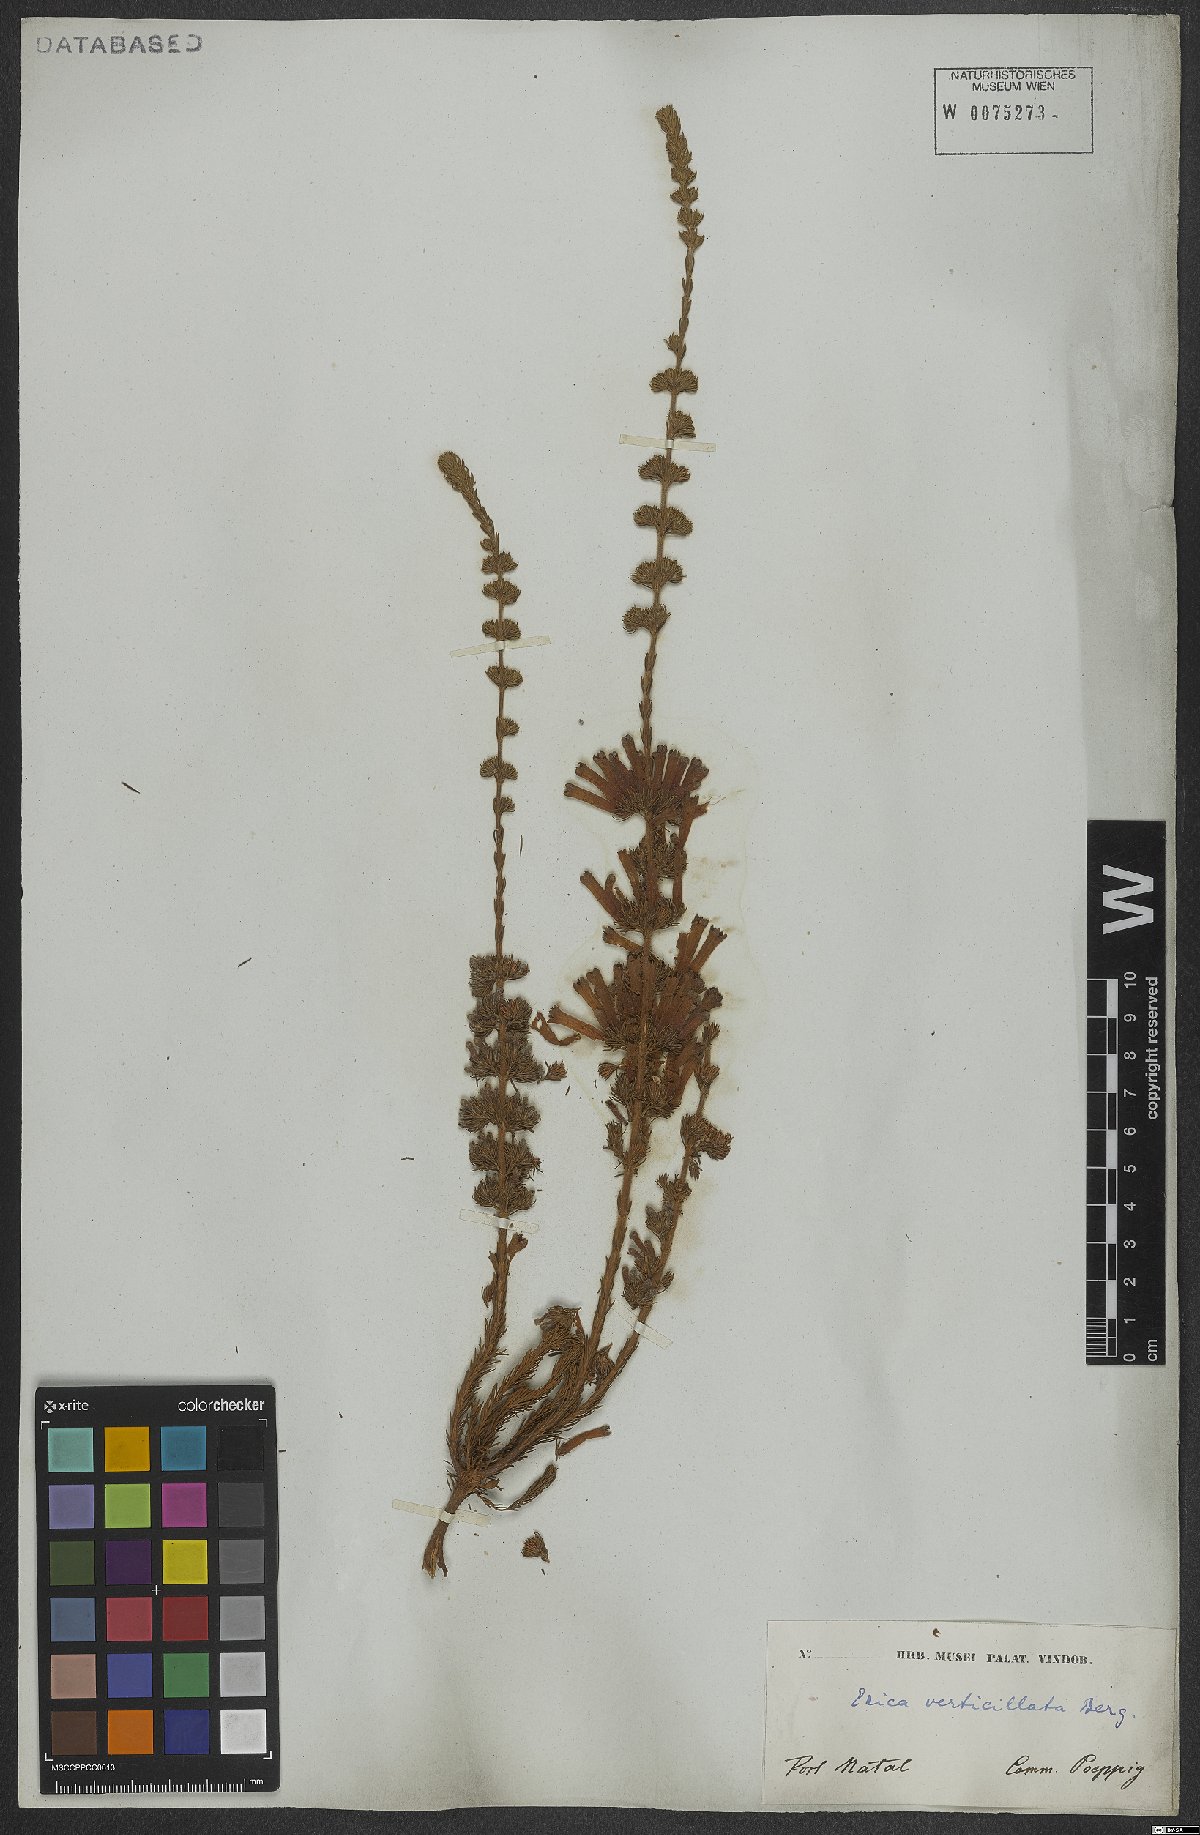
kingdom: Plantae
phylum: Tracheophyta
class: Magnoliopsida
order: Ericales
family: Ericaceae
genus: Erica
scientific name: Erica verticillata
